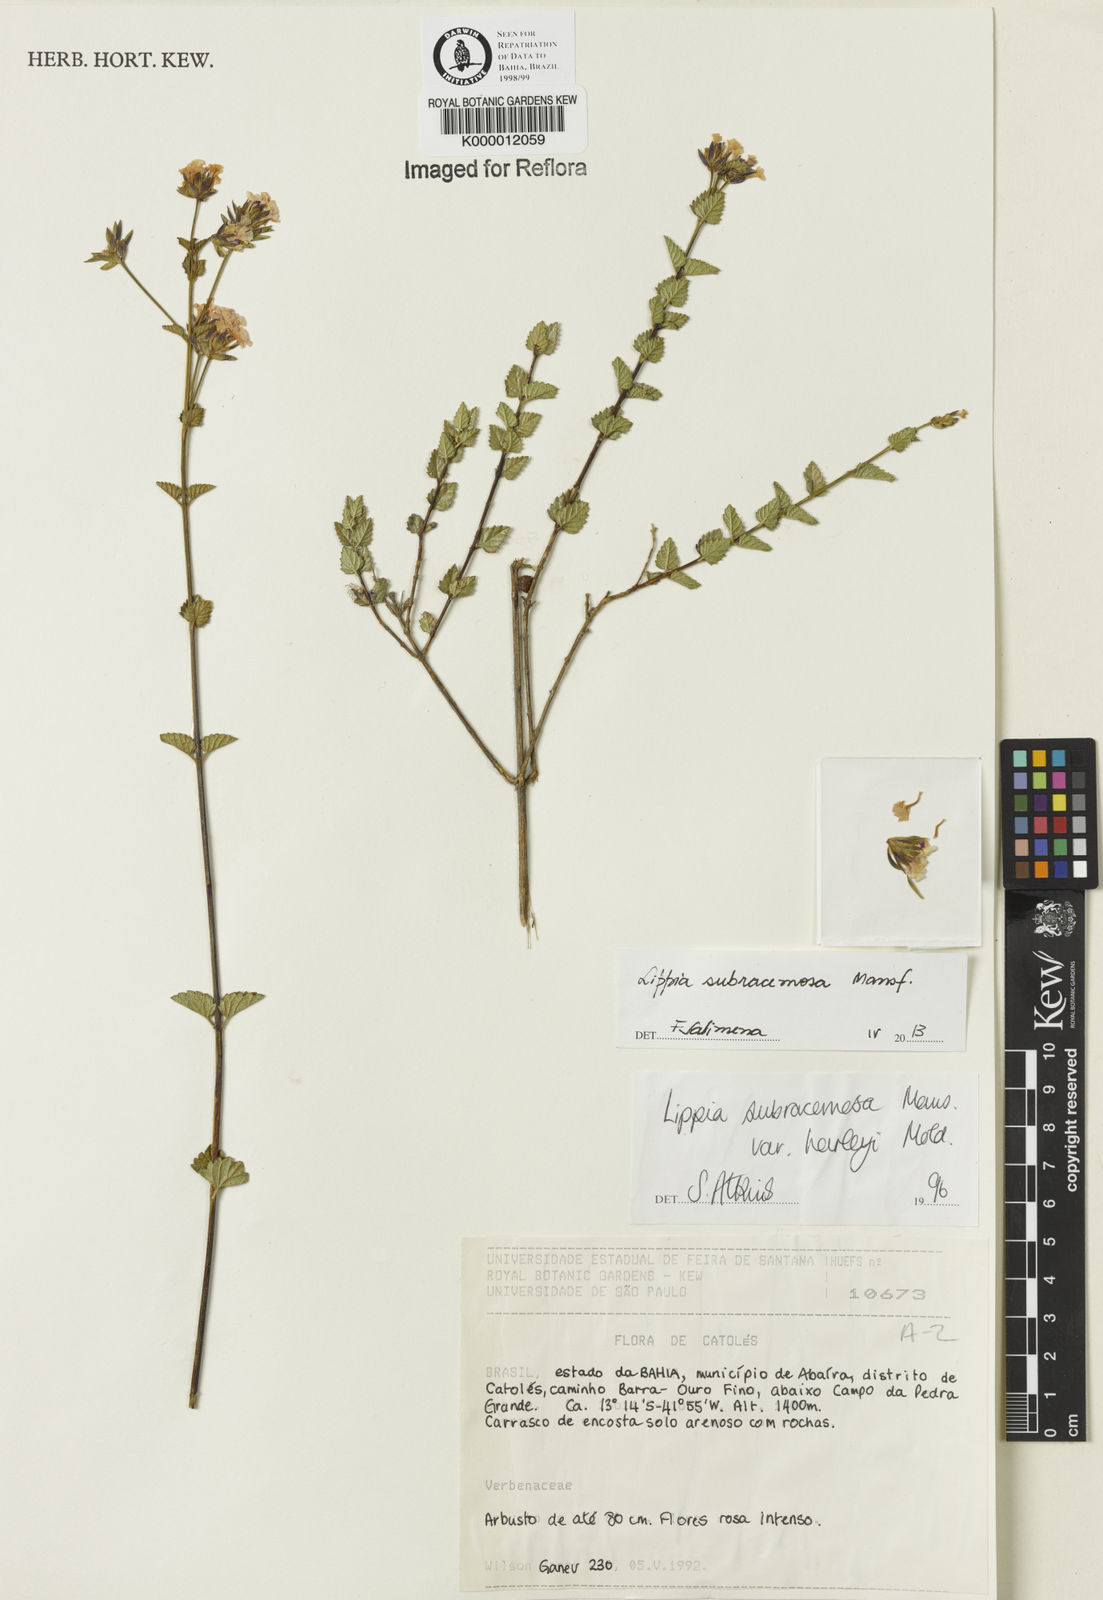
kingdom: Plantae
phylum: Tracheophyta
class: Magnoliopsida
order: Lamiales
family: Verbenaceae
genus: Lippia
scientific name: Lippia deltata
